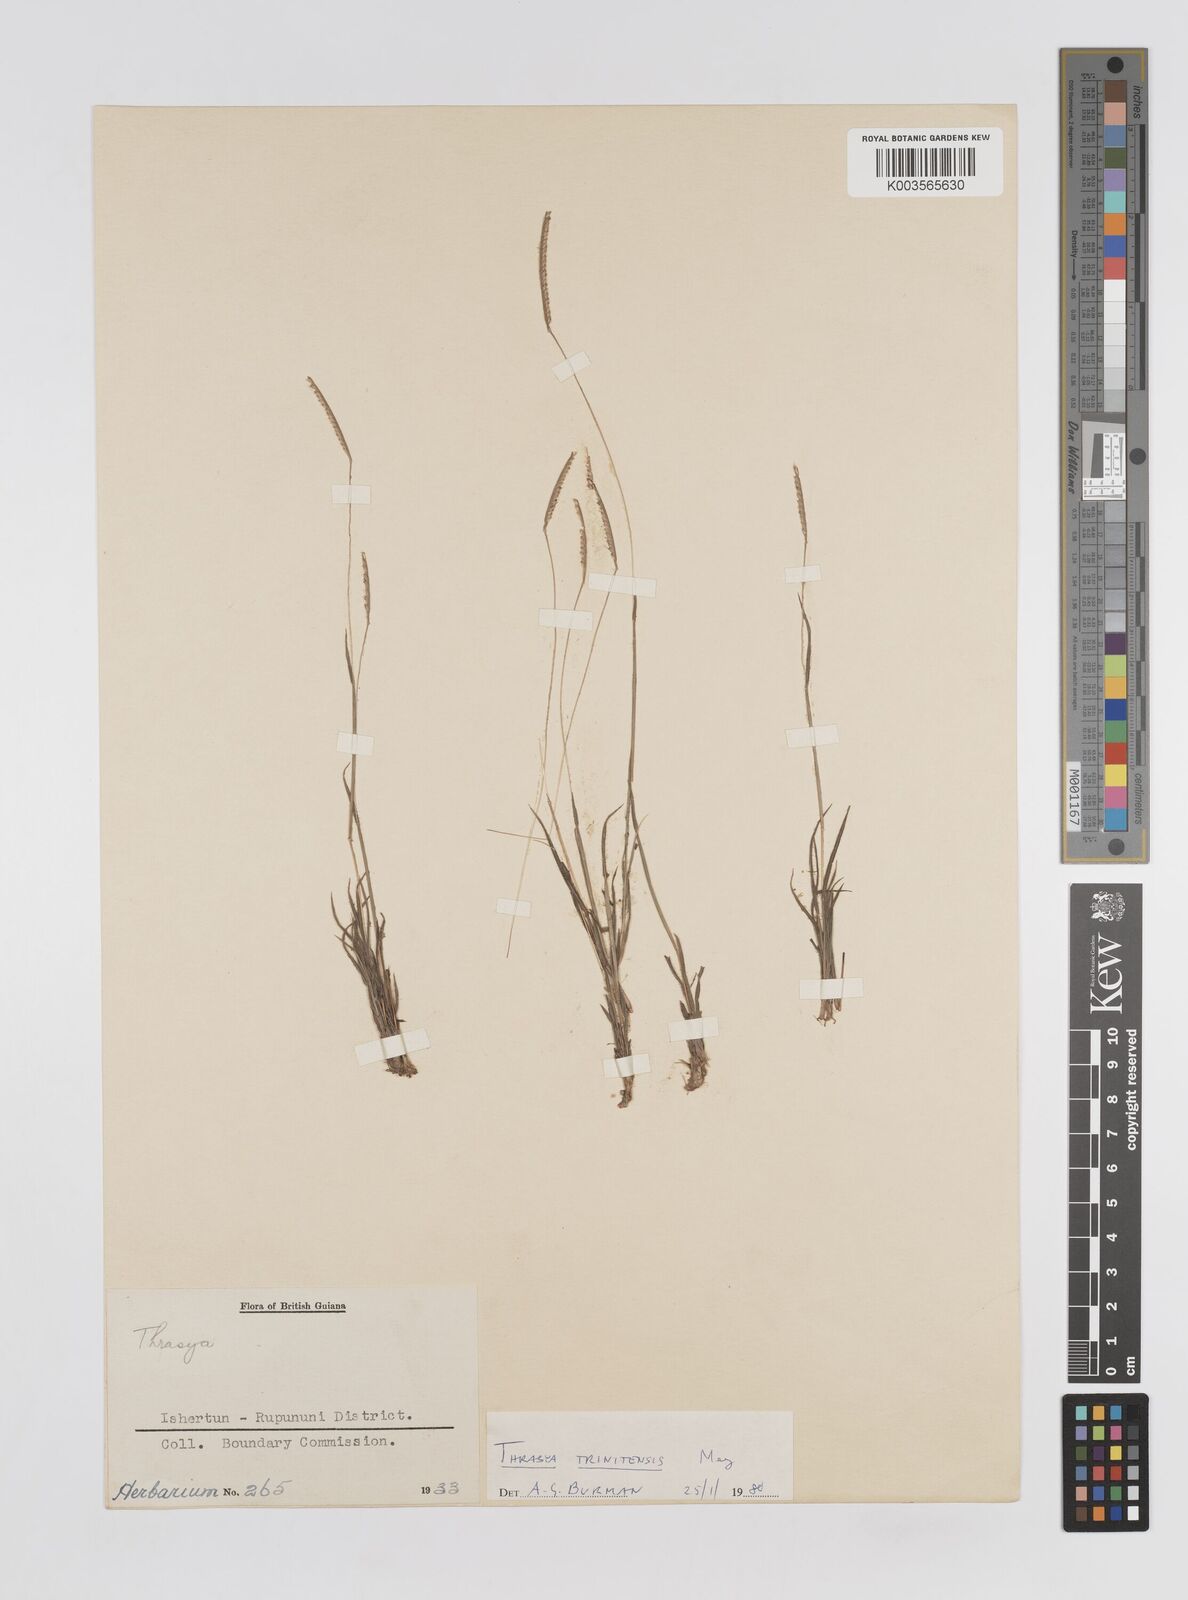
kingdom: Plantae
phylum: Tracheophyta
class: Liliopsida
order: Poales
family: Poaceae
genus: Paspalum
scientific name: Paspalum trinitense
